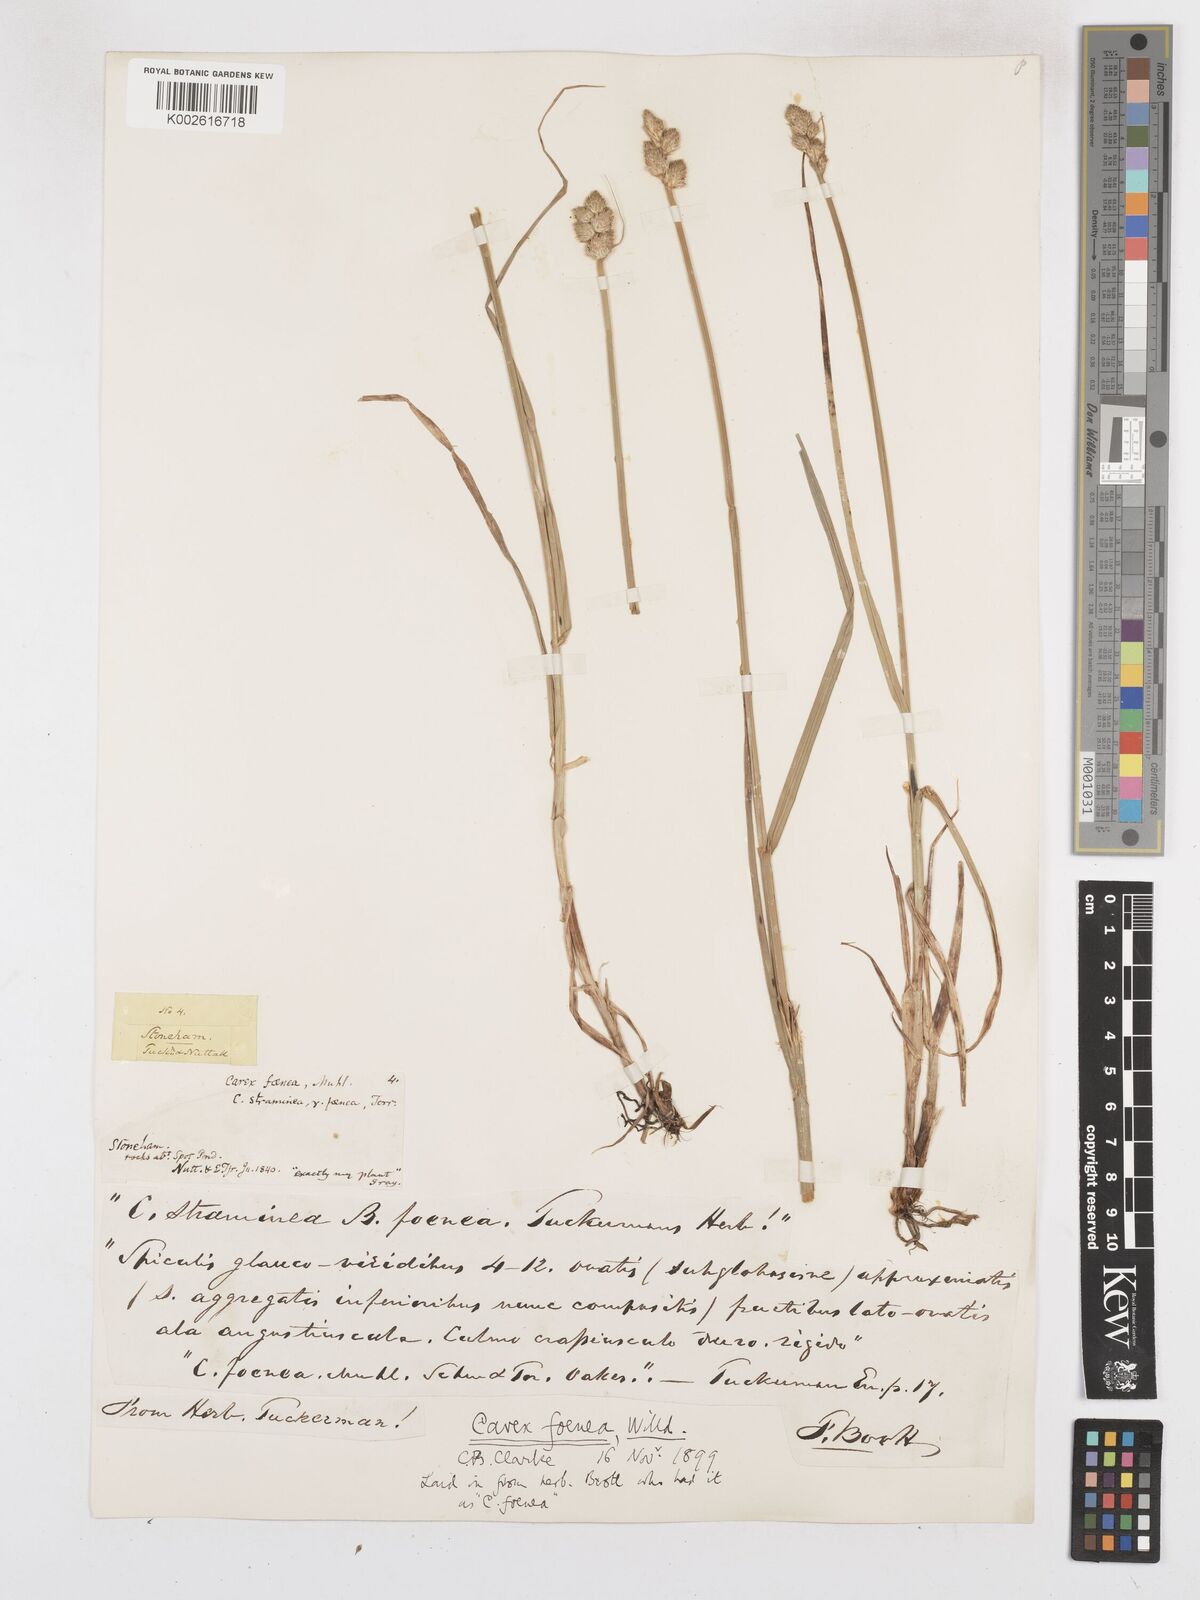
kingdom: Plantae
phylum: Tracheophyta
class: Liliopsida
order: Poales
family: Cyperaceae
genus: Carex
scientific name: Carex argyrantha
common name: Silvery-flowered sedge
